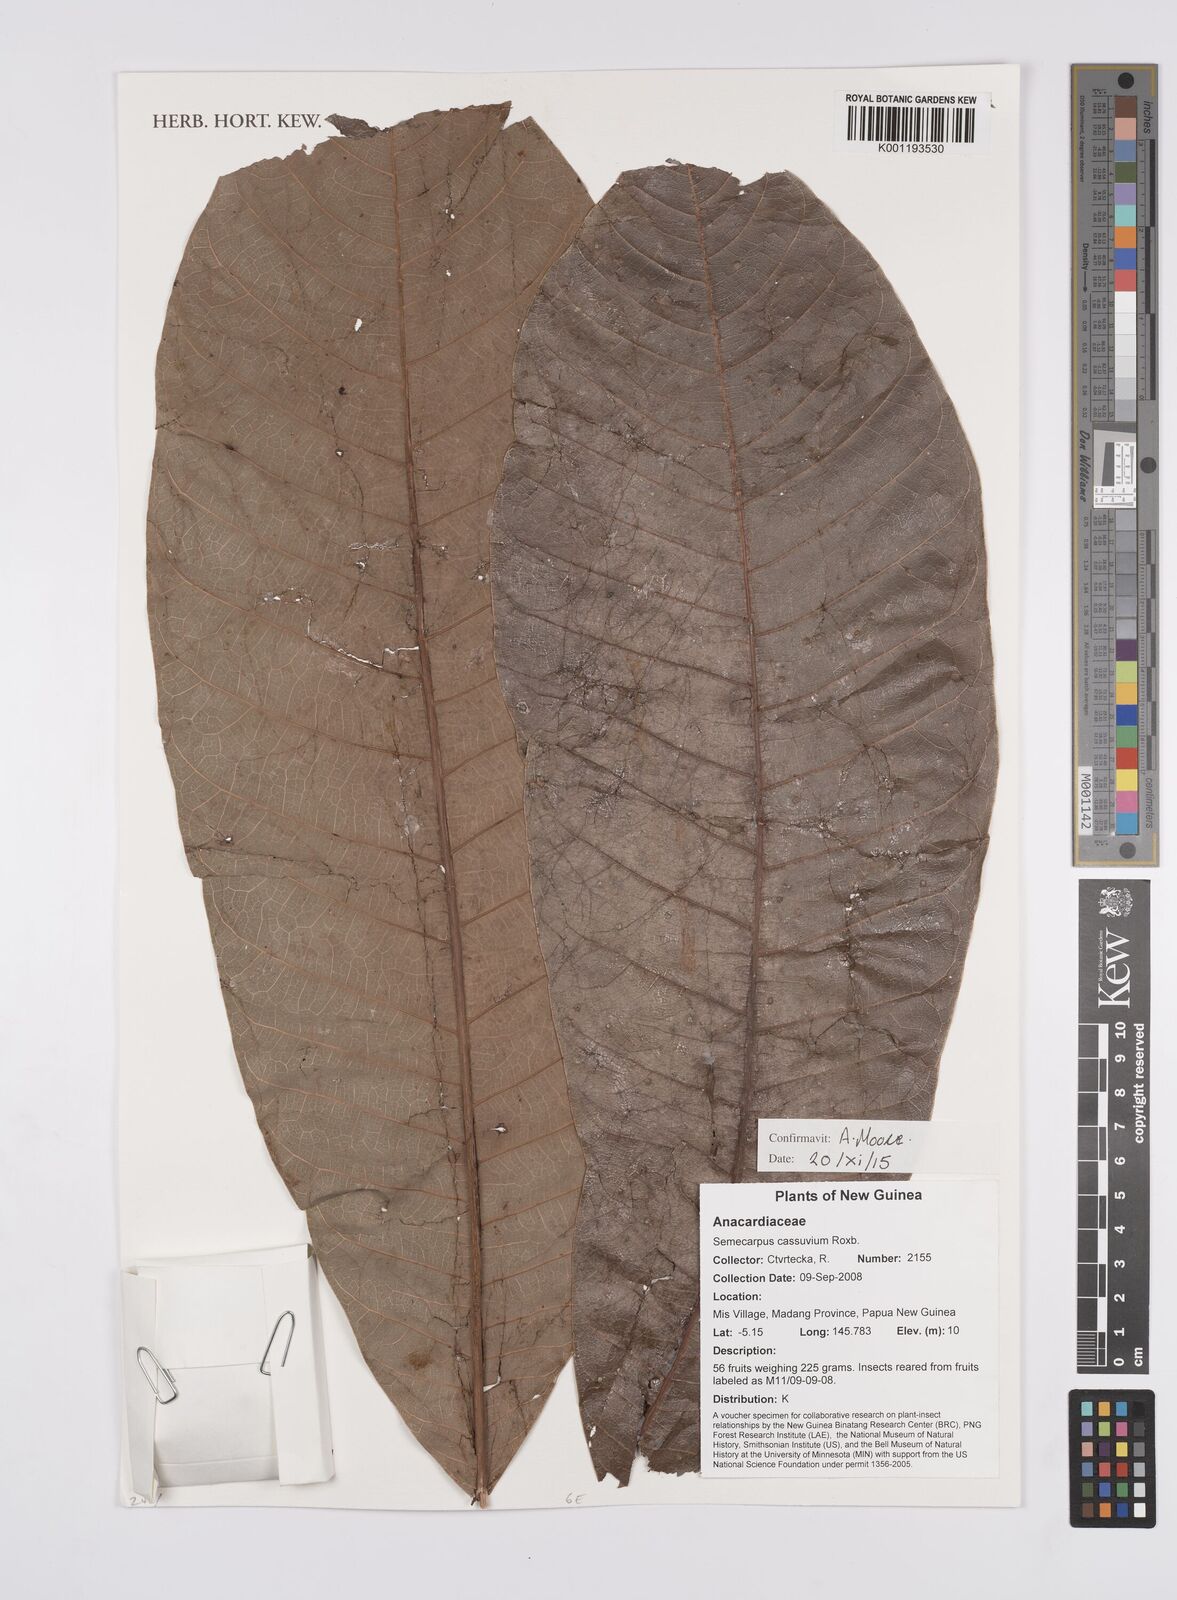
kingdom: Plantae
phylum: Tracheophyta
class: Magnoliopsida
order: Sapindales
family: Anacardiaceae
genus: Semecarpus
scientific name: Semecarpus cassuvium
